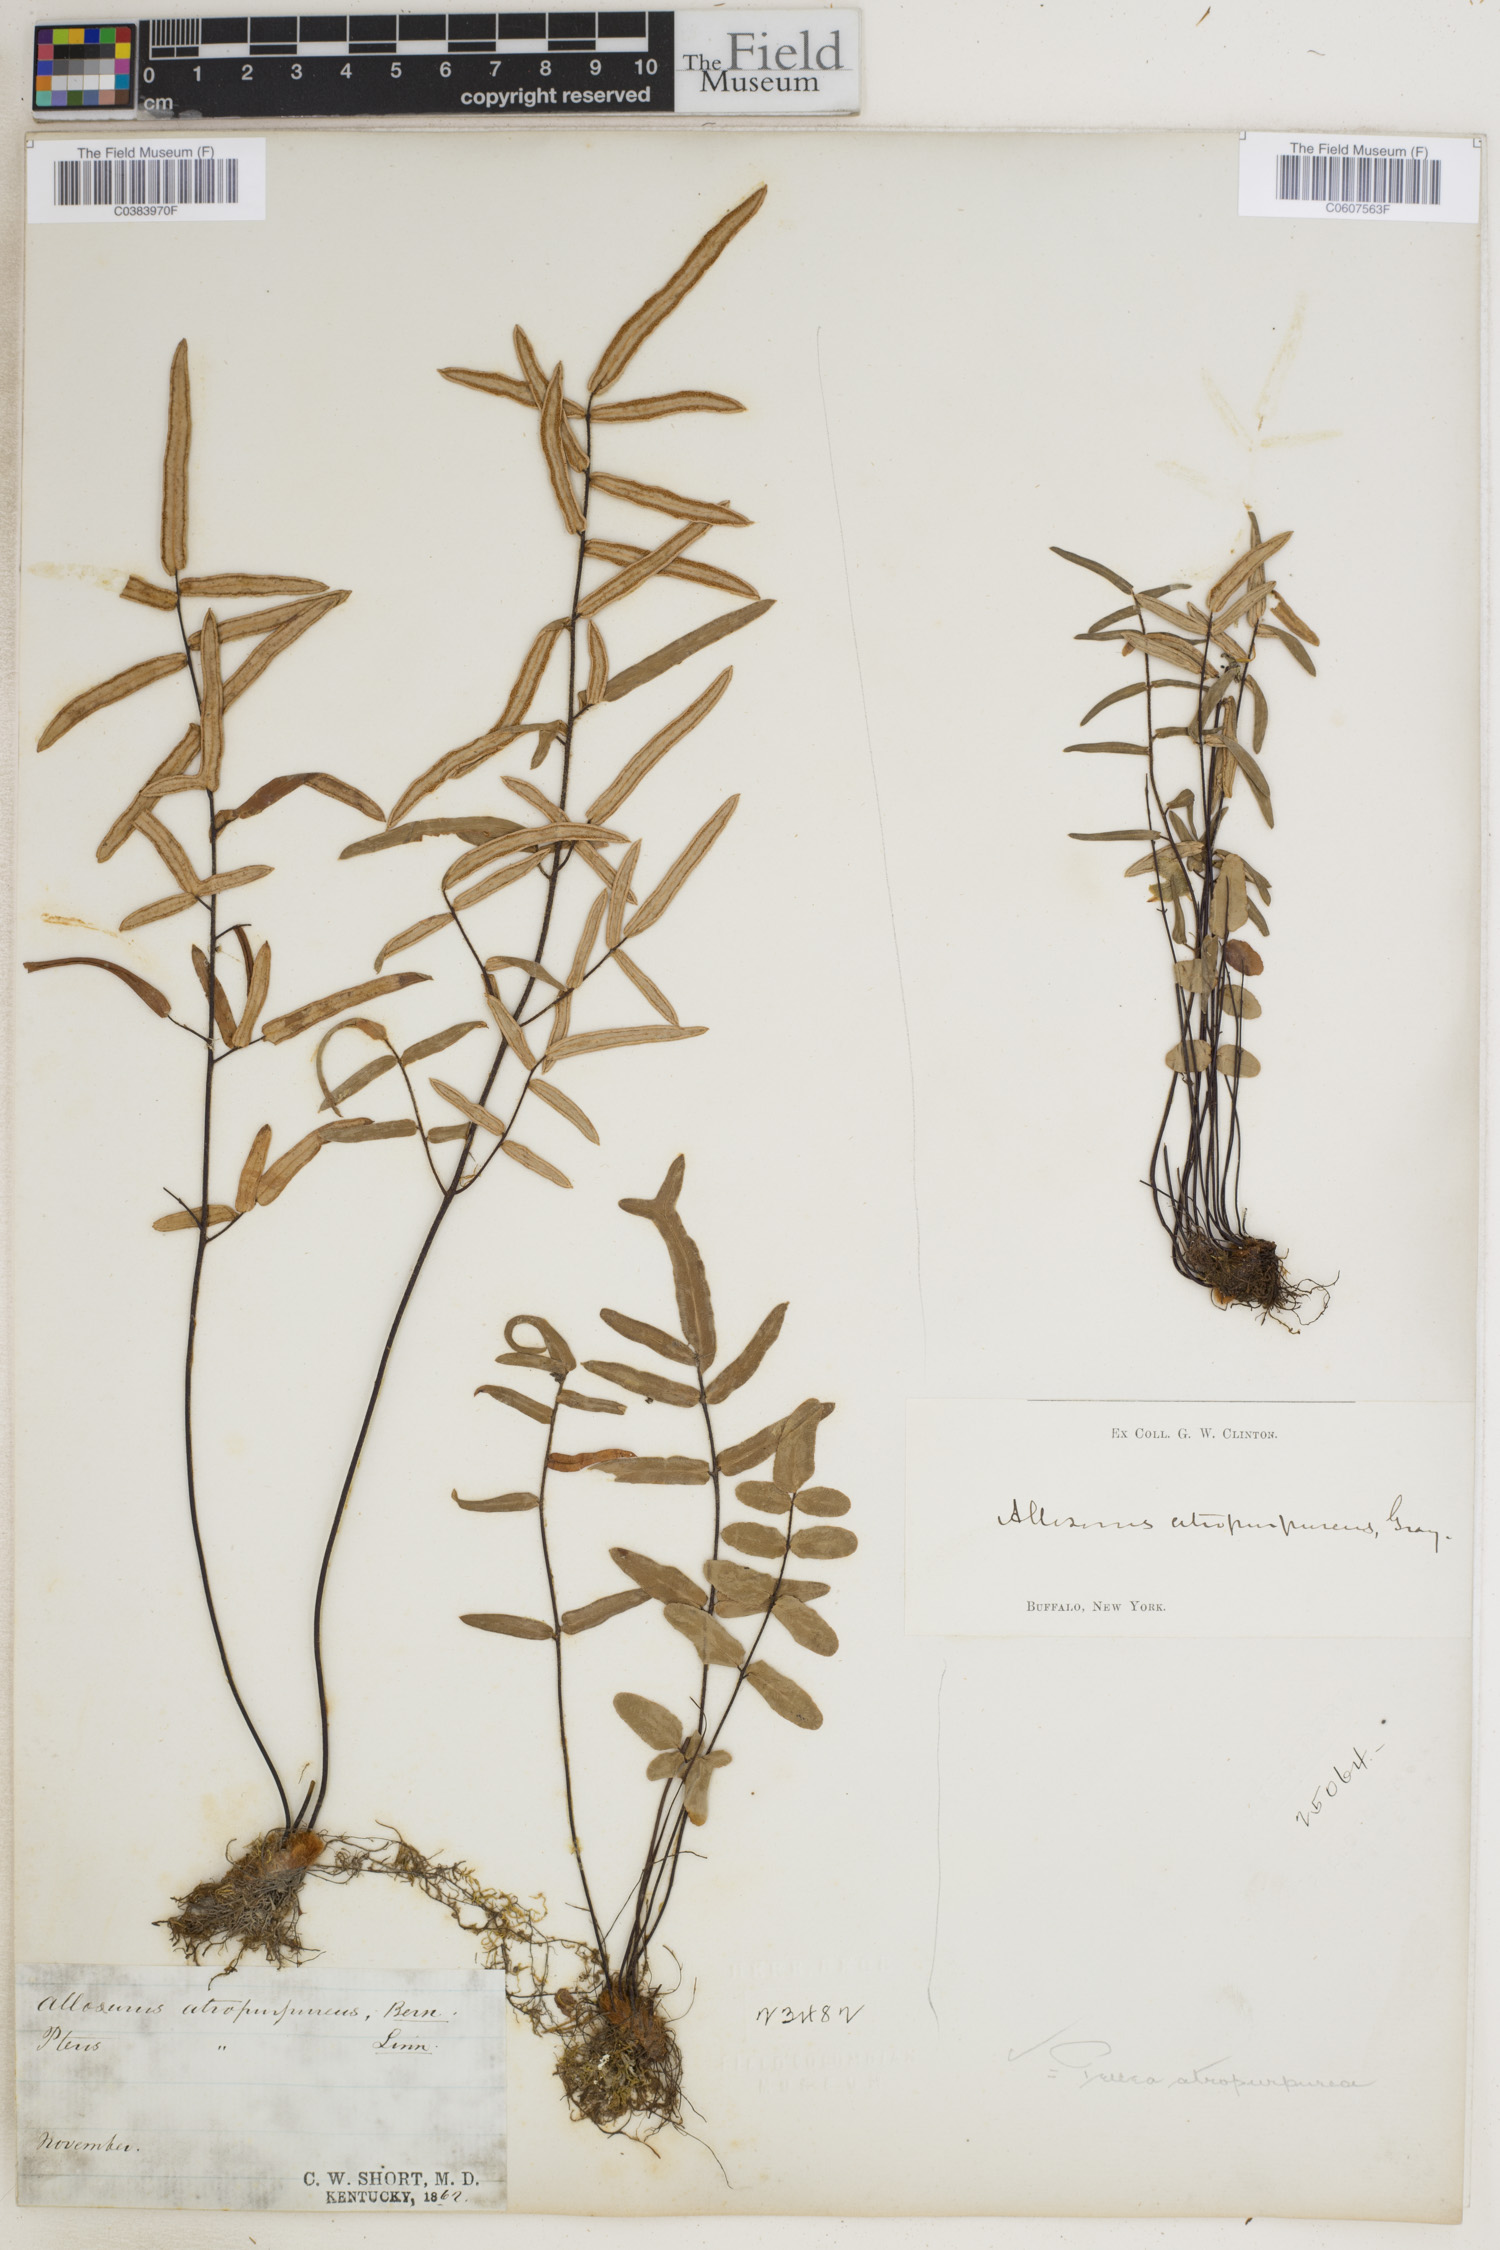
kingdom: Plantae
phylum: Tracheophyta
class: Polypodiopsida
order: Polypodiales
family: Pteridaceae
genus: Pellaea
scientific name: Pellaea atropurpurea
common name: Hairy cliffbrake
